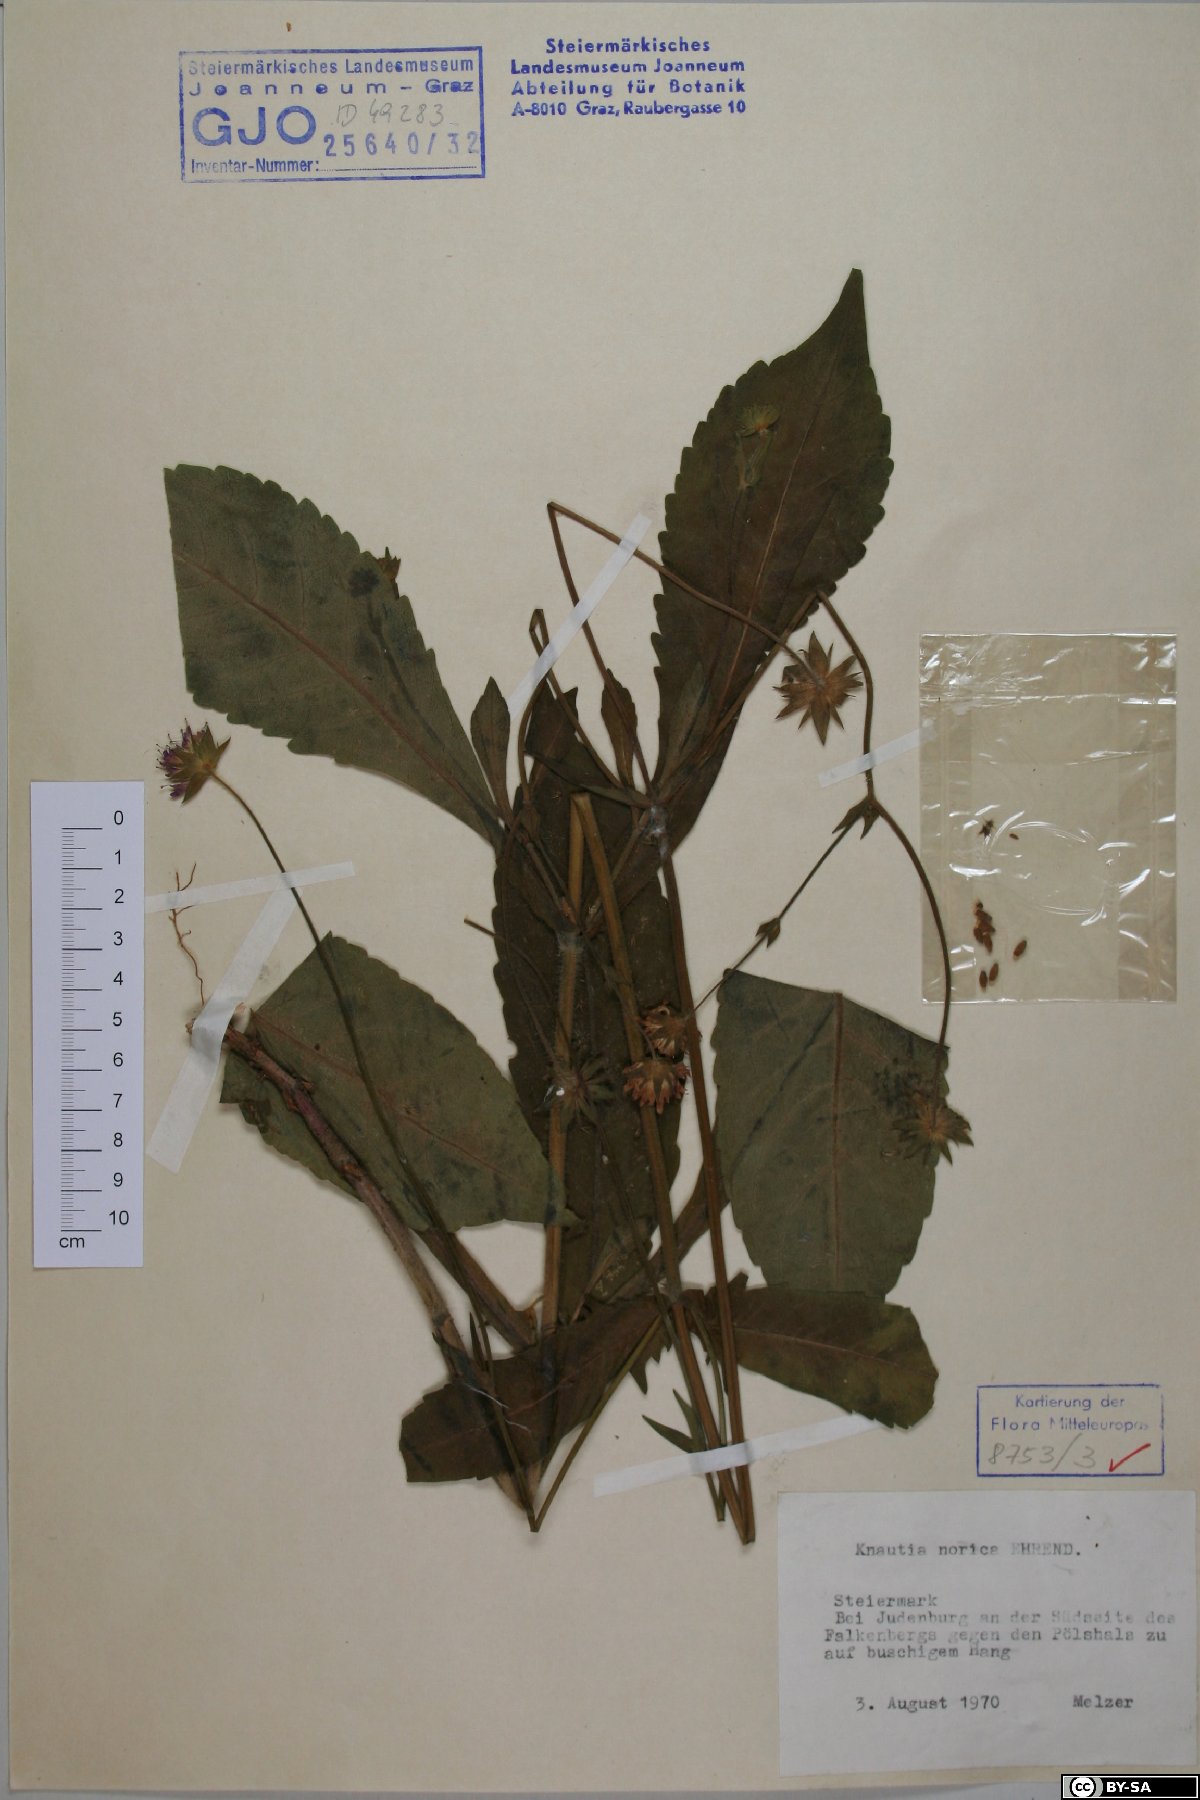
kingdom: Plantae
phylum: Tracheophyta
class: Magnoliopsida
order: Dipsacales
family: Caprifoliaceae
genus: Knautia
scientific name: Knautia norica
